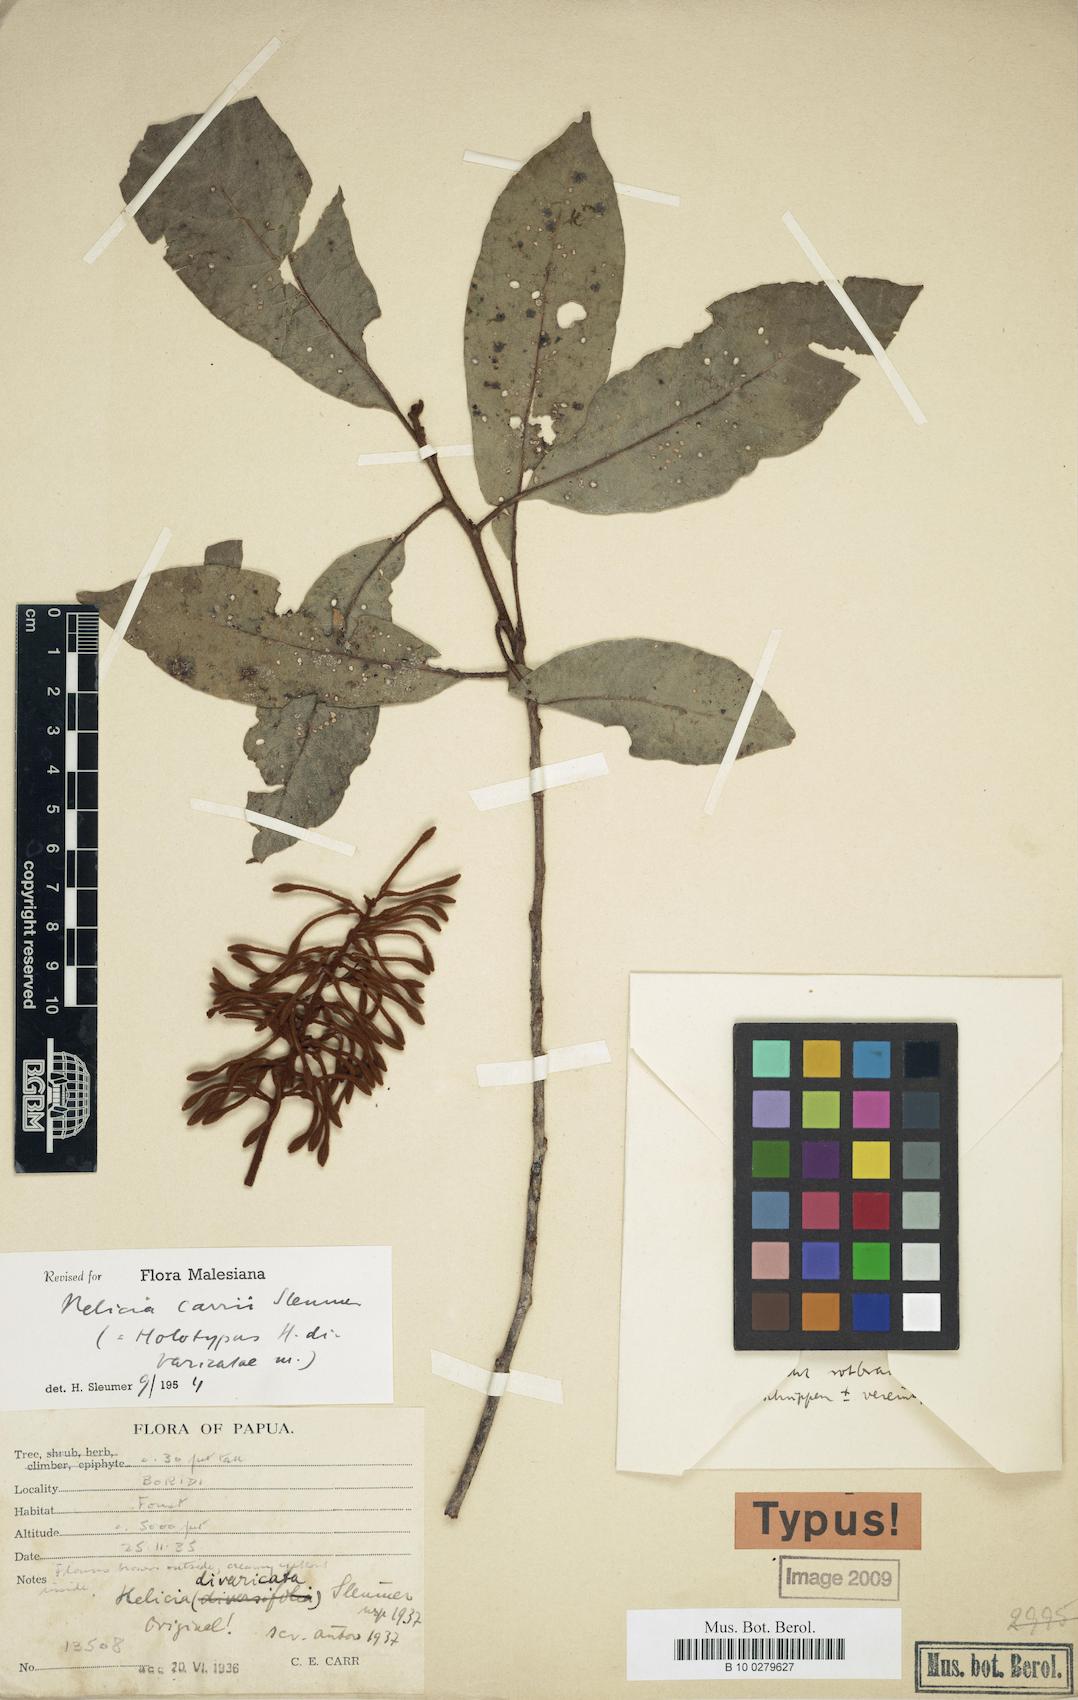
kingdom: Plantae
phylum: Tracheophyta
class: Magnoliopsida
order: Proteales
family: Proteaceae
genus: Helicia
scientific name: Helicia carrii
